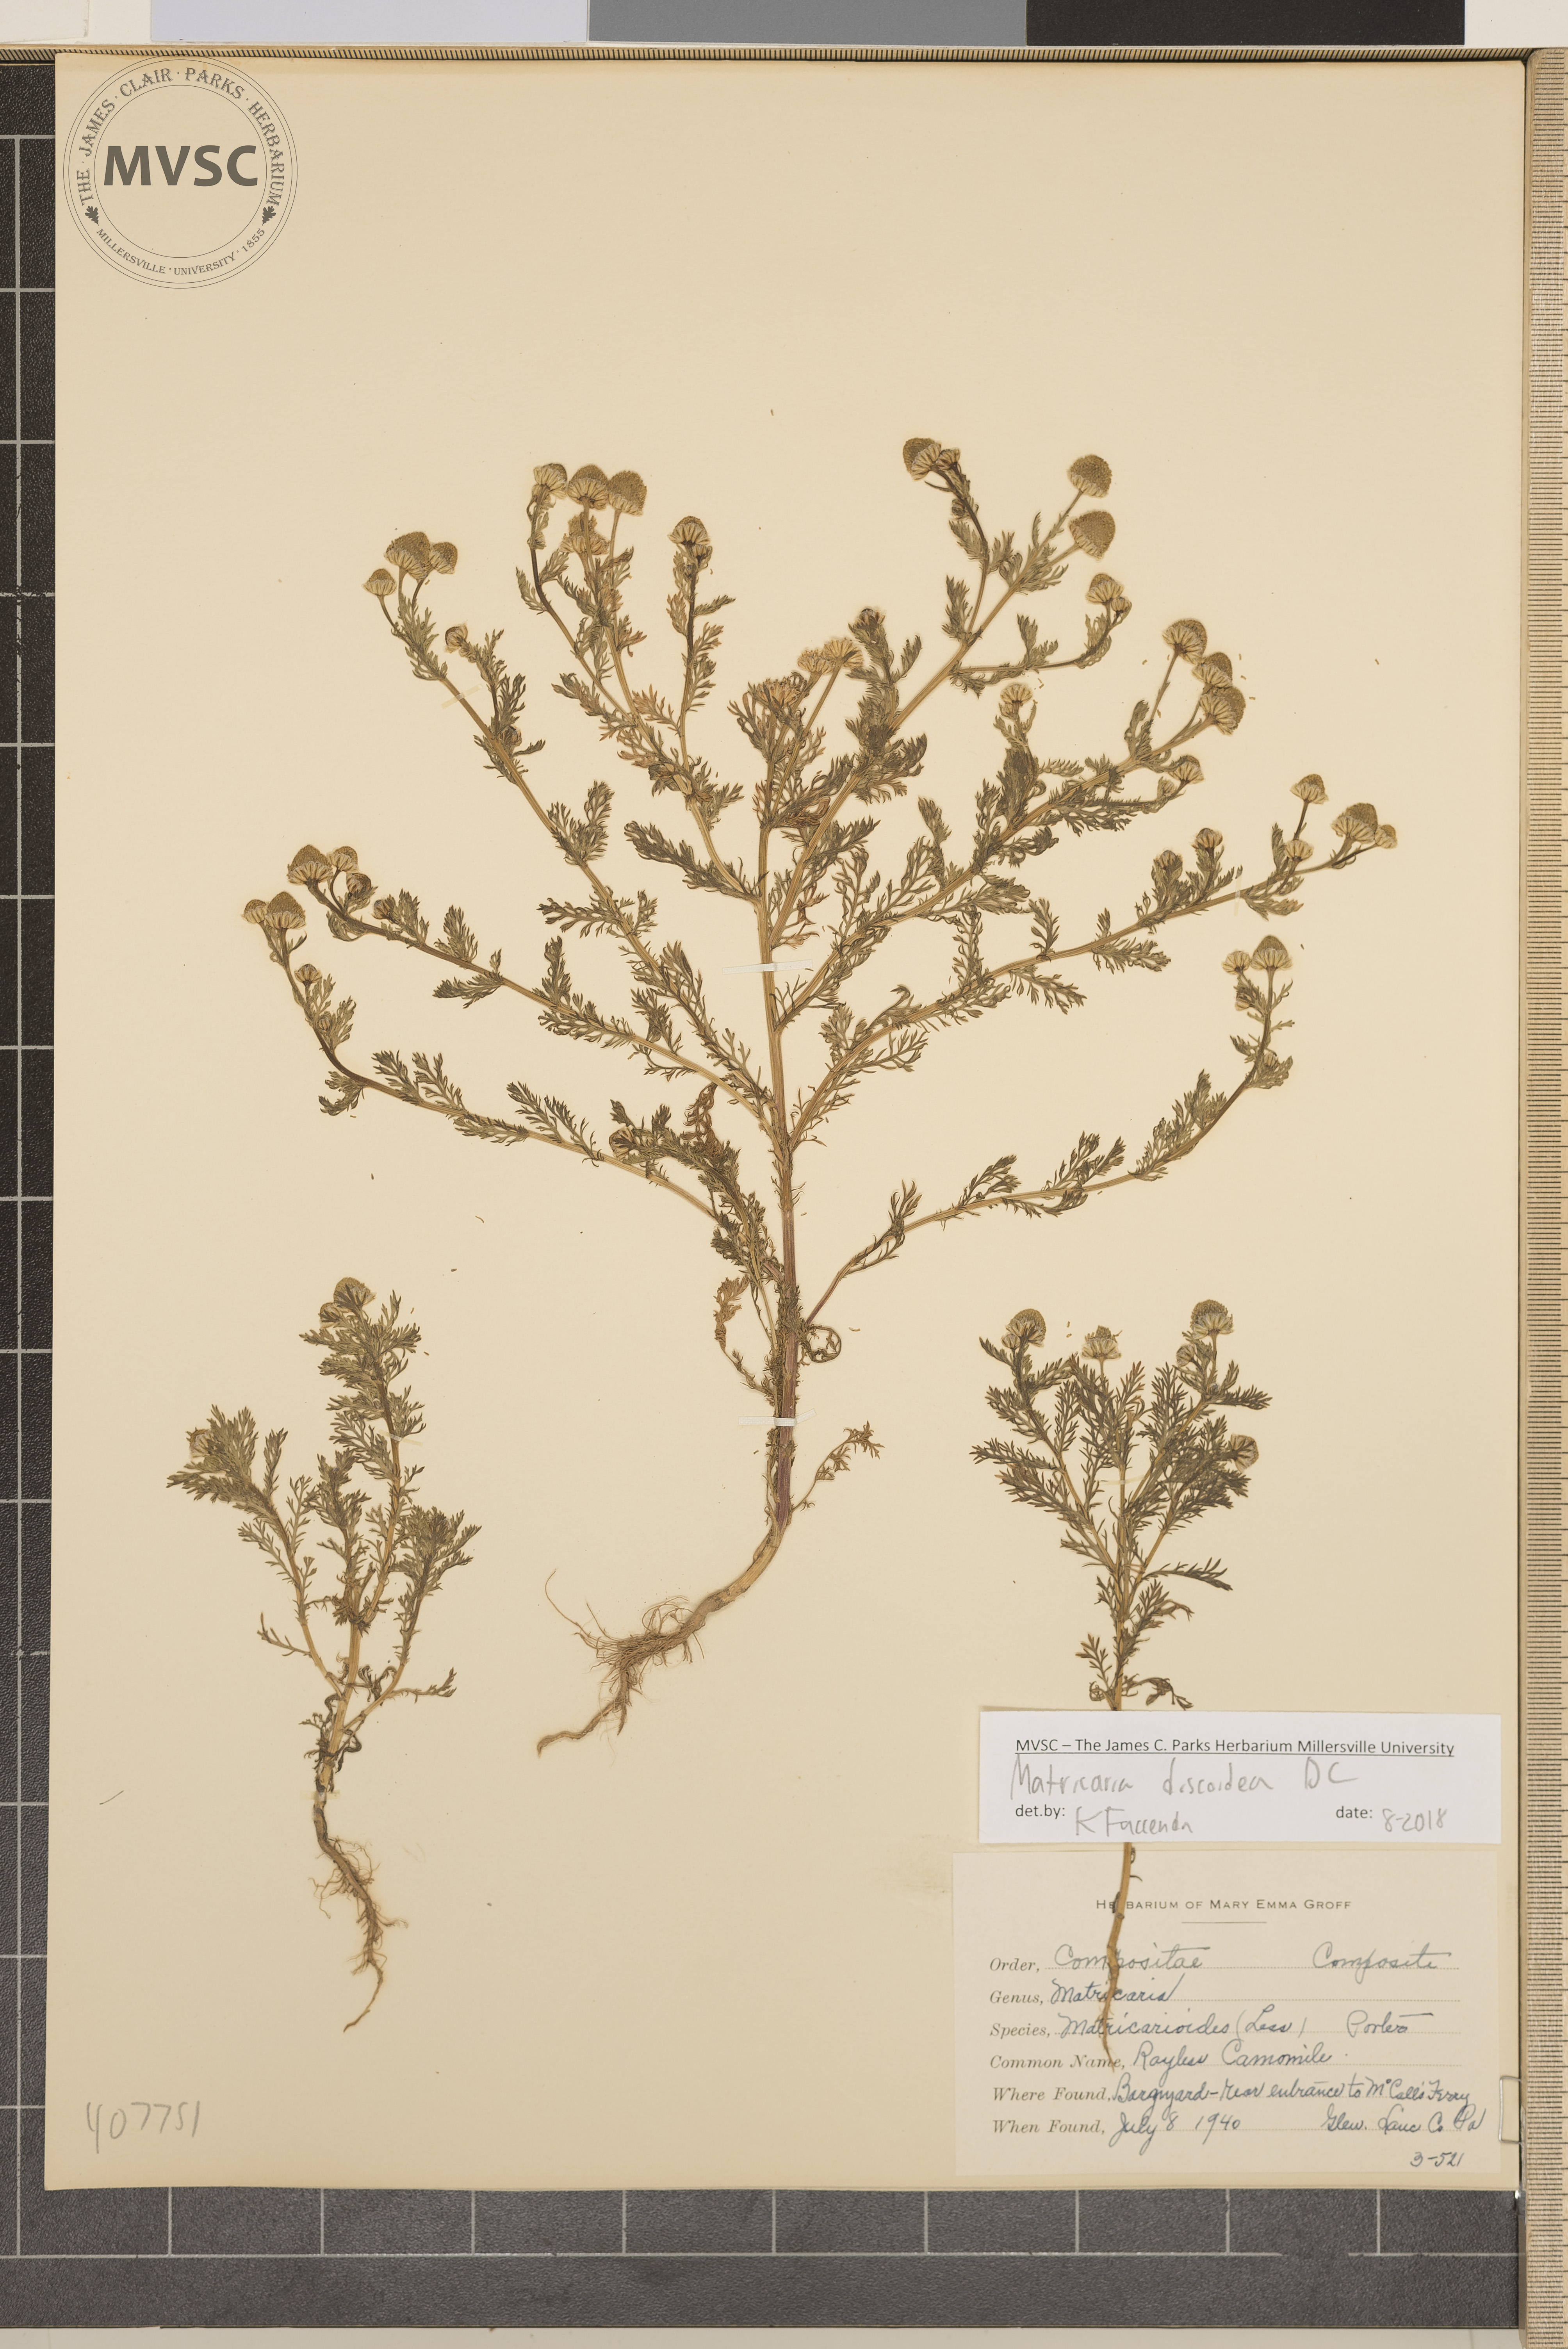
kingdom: Plantae
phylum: Tracheophyta
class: Magnoliopsida
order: Asterales
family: Asteraceae
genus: Matricaria
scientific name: Matricaria discoidea
